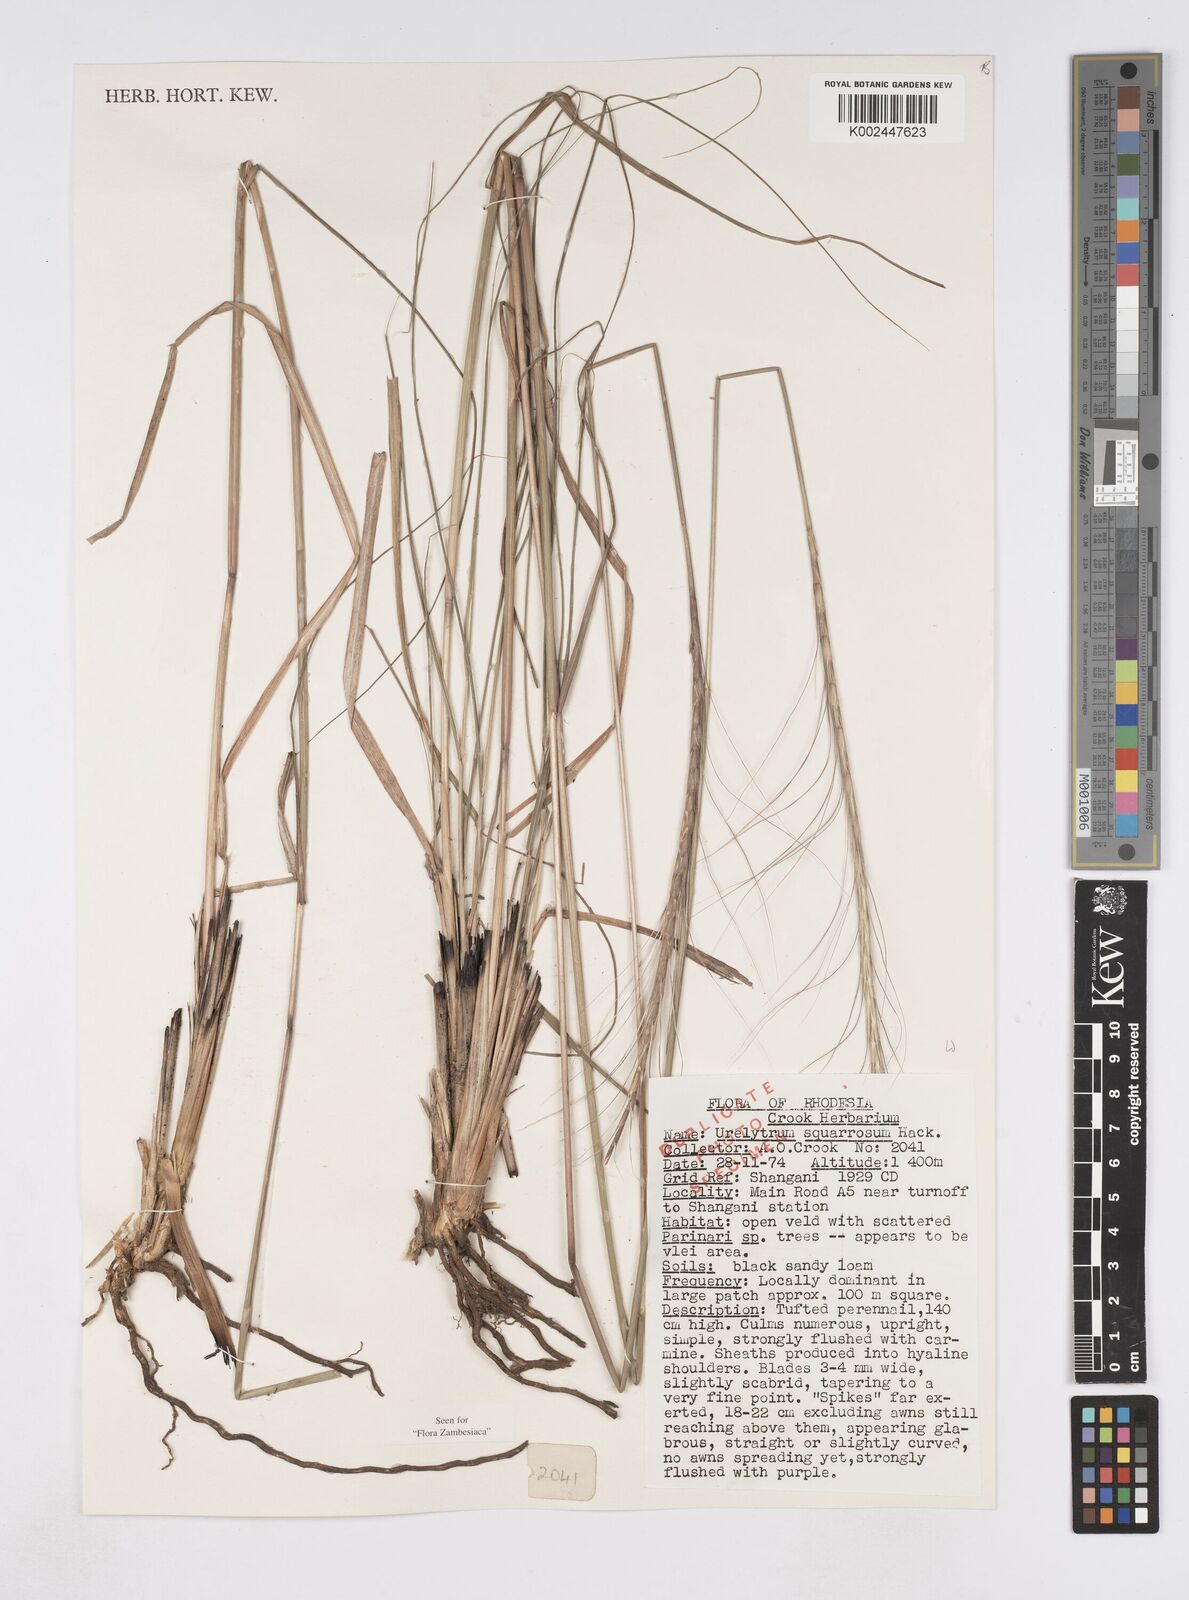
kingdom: Plantae
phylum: Tracheophyta
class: Liliopsida
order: Poales
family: Poaceae
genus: Urelytrum
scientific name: Urelytrum agropyroides
